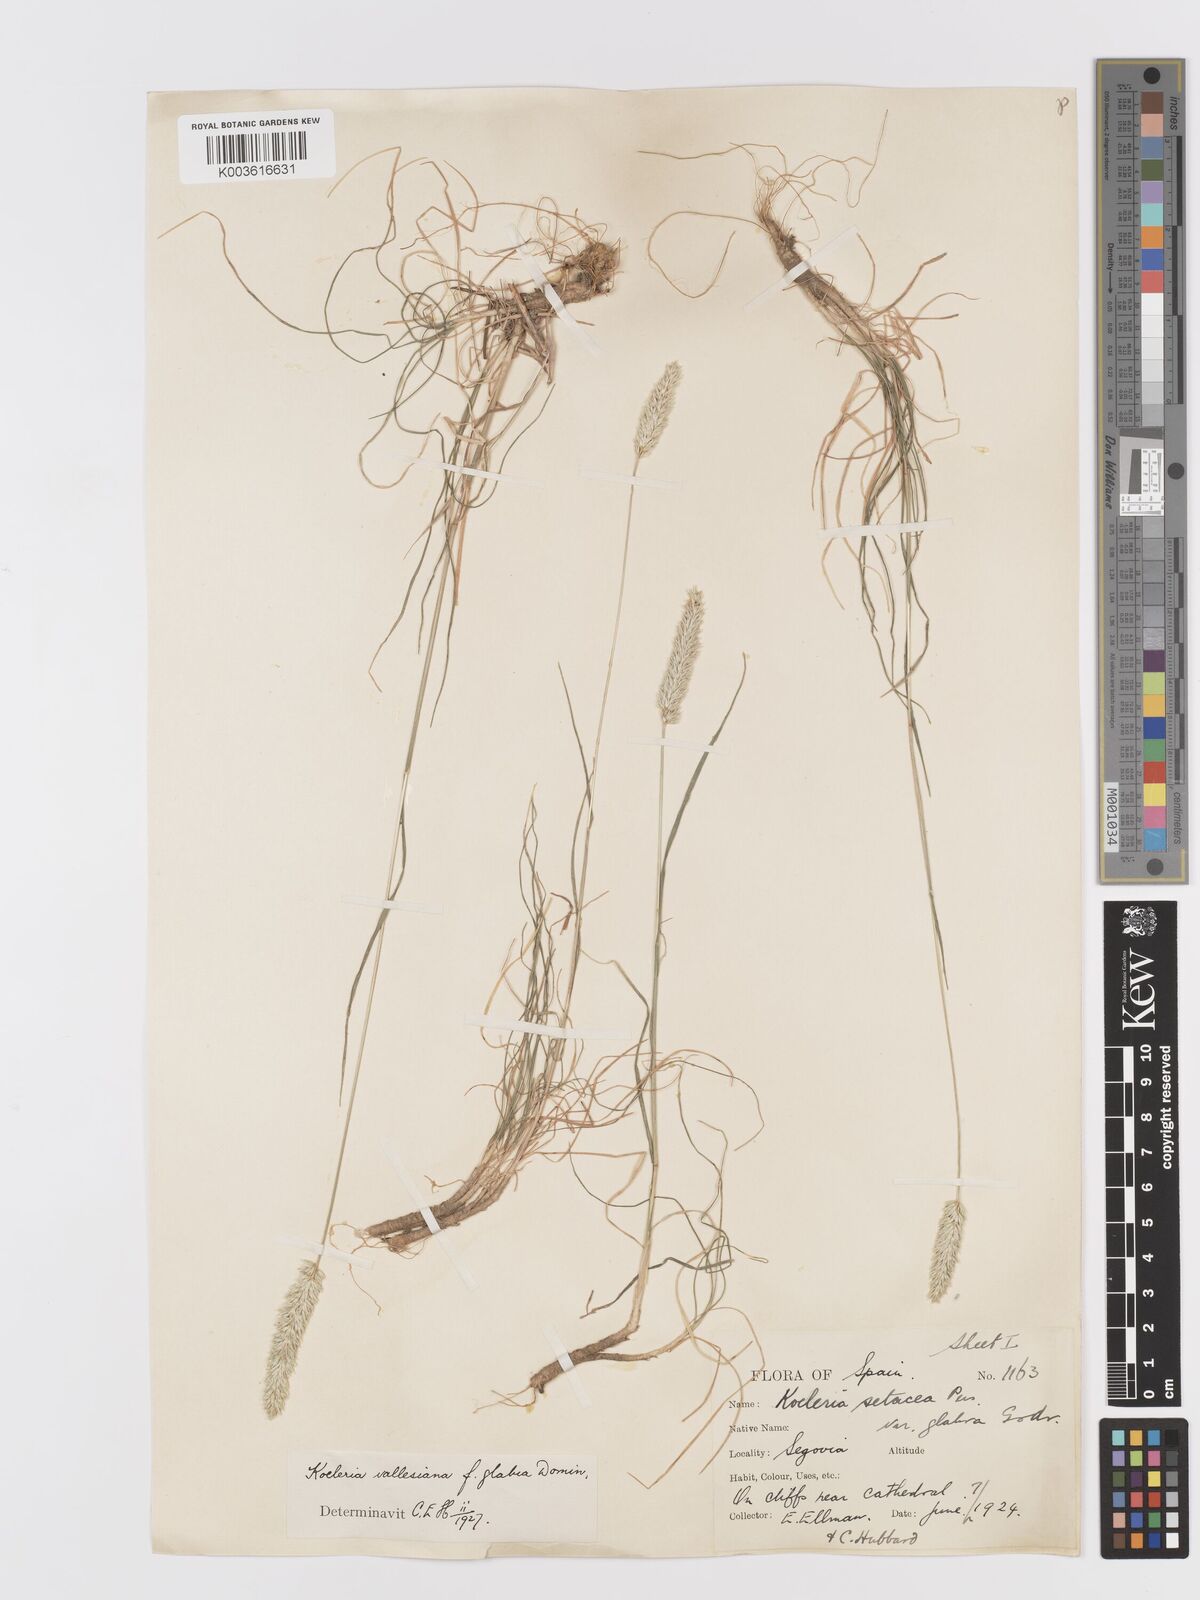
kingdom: Plantae
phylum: Tracheophyta
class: Liliopsida
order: Poales
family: Poaceae
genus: Koeleria
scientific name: Koeleria vallesiana
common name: Somerset hair-grass
